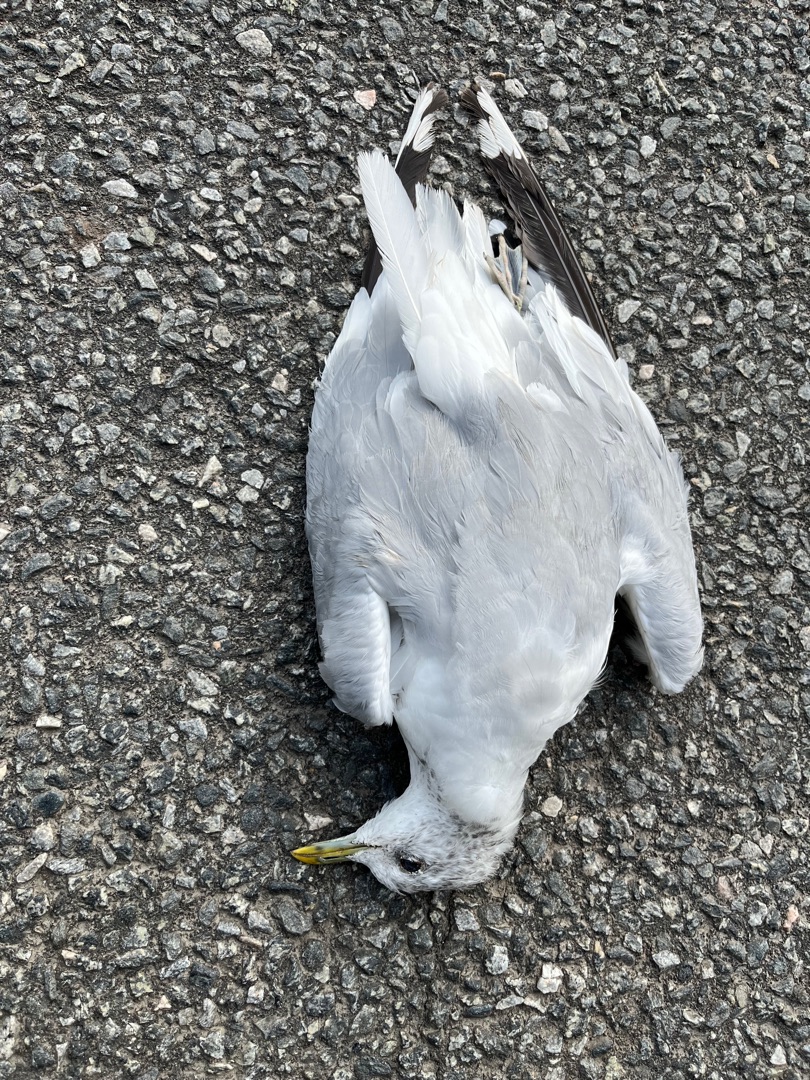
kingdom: Animalia
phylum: Chordata
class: Aves
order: Charadriiformes
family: Laridae
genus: Larus
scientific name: Larus canus
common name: Stormmåge
